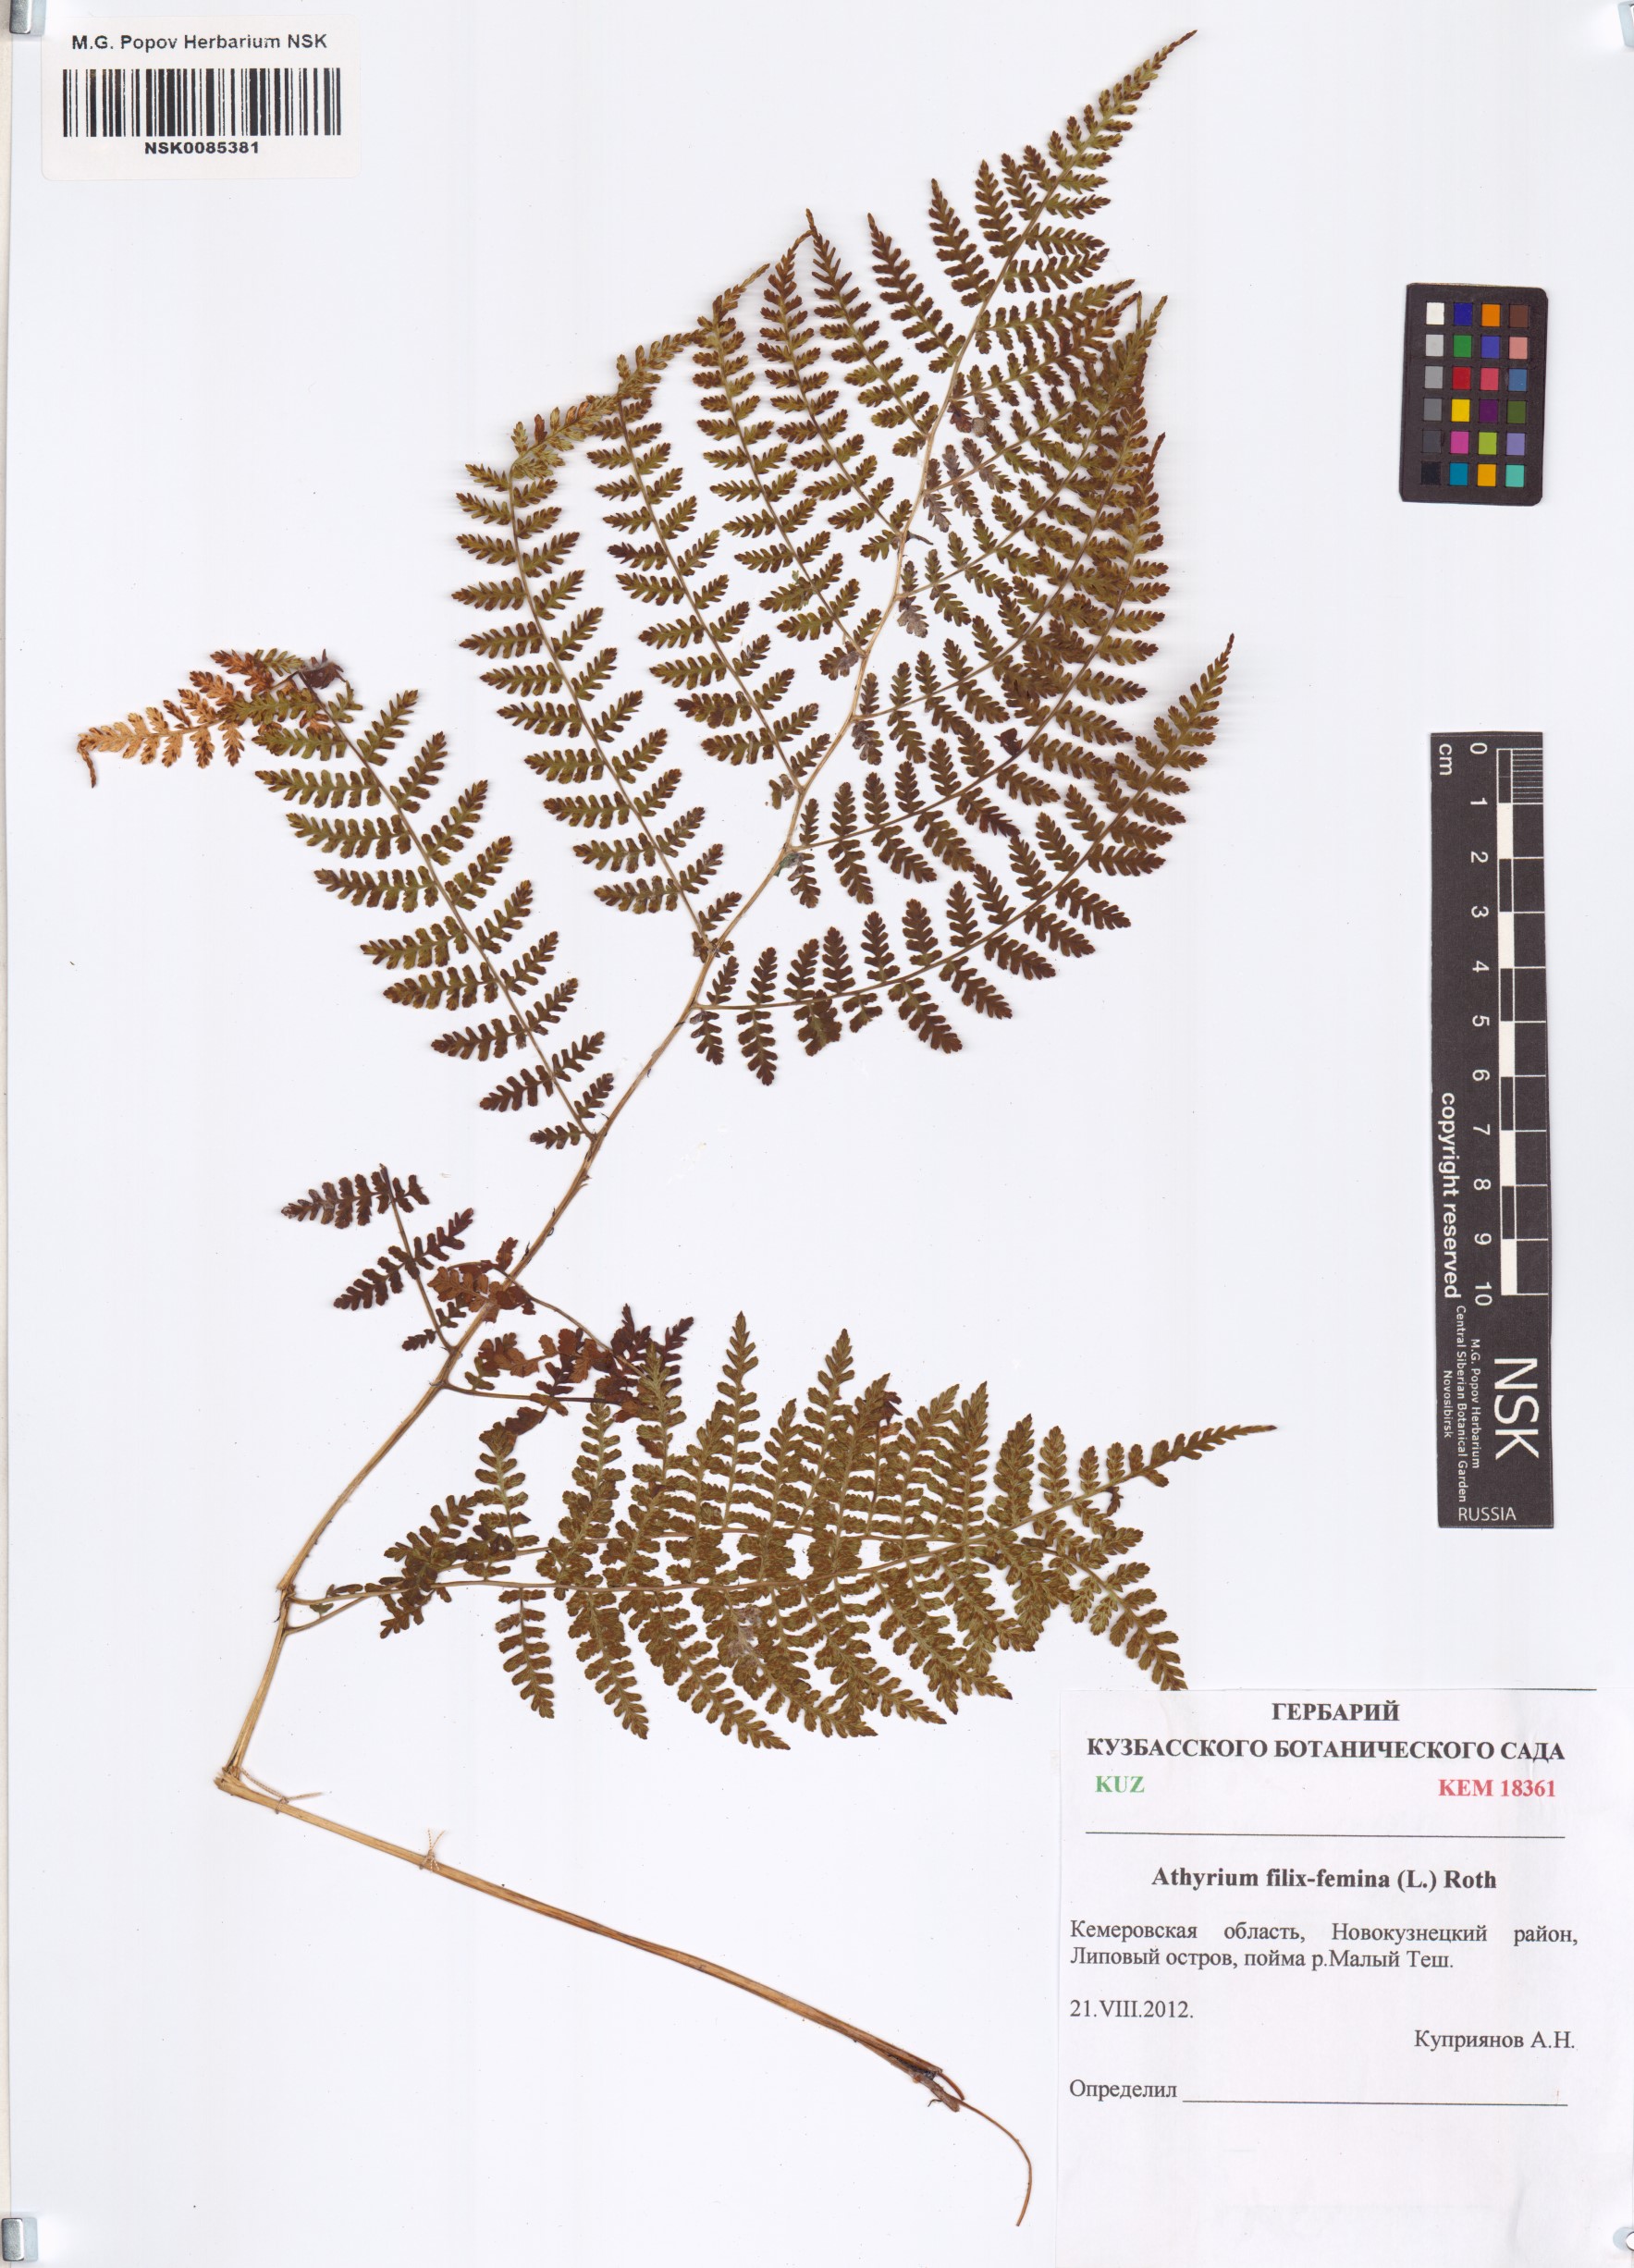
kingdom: Plantae
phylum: Tracheophyta
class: Polypodiopsida
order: Polypodiales
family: Athyriaceae
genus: Athyrium
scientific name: Athyrium filix-femina
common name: Lady fern
